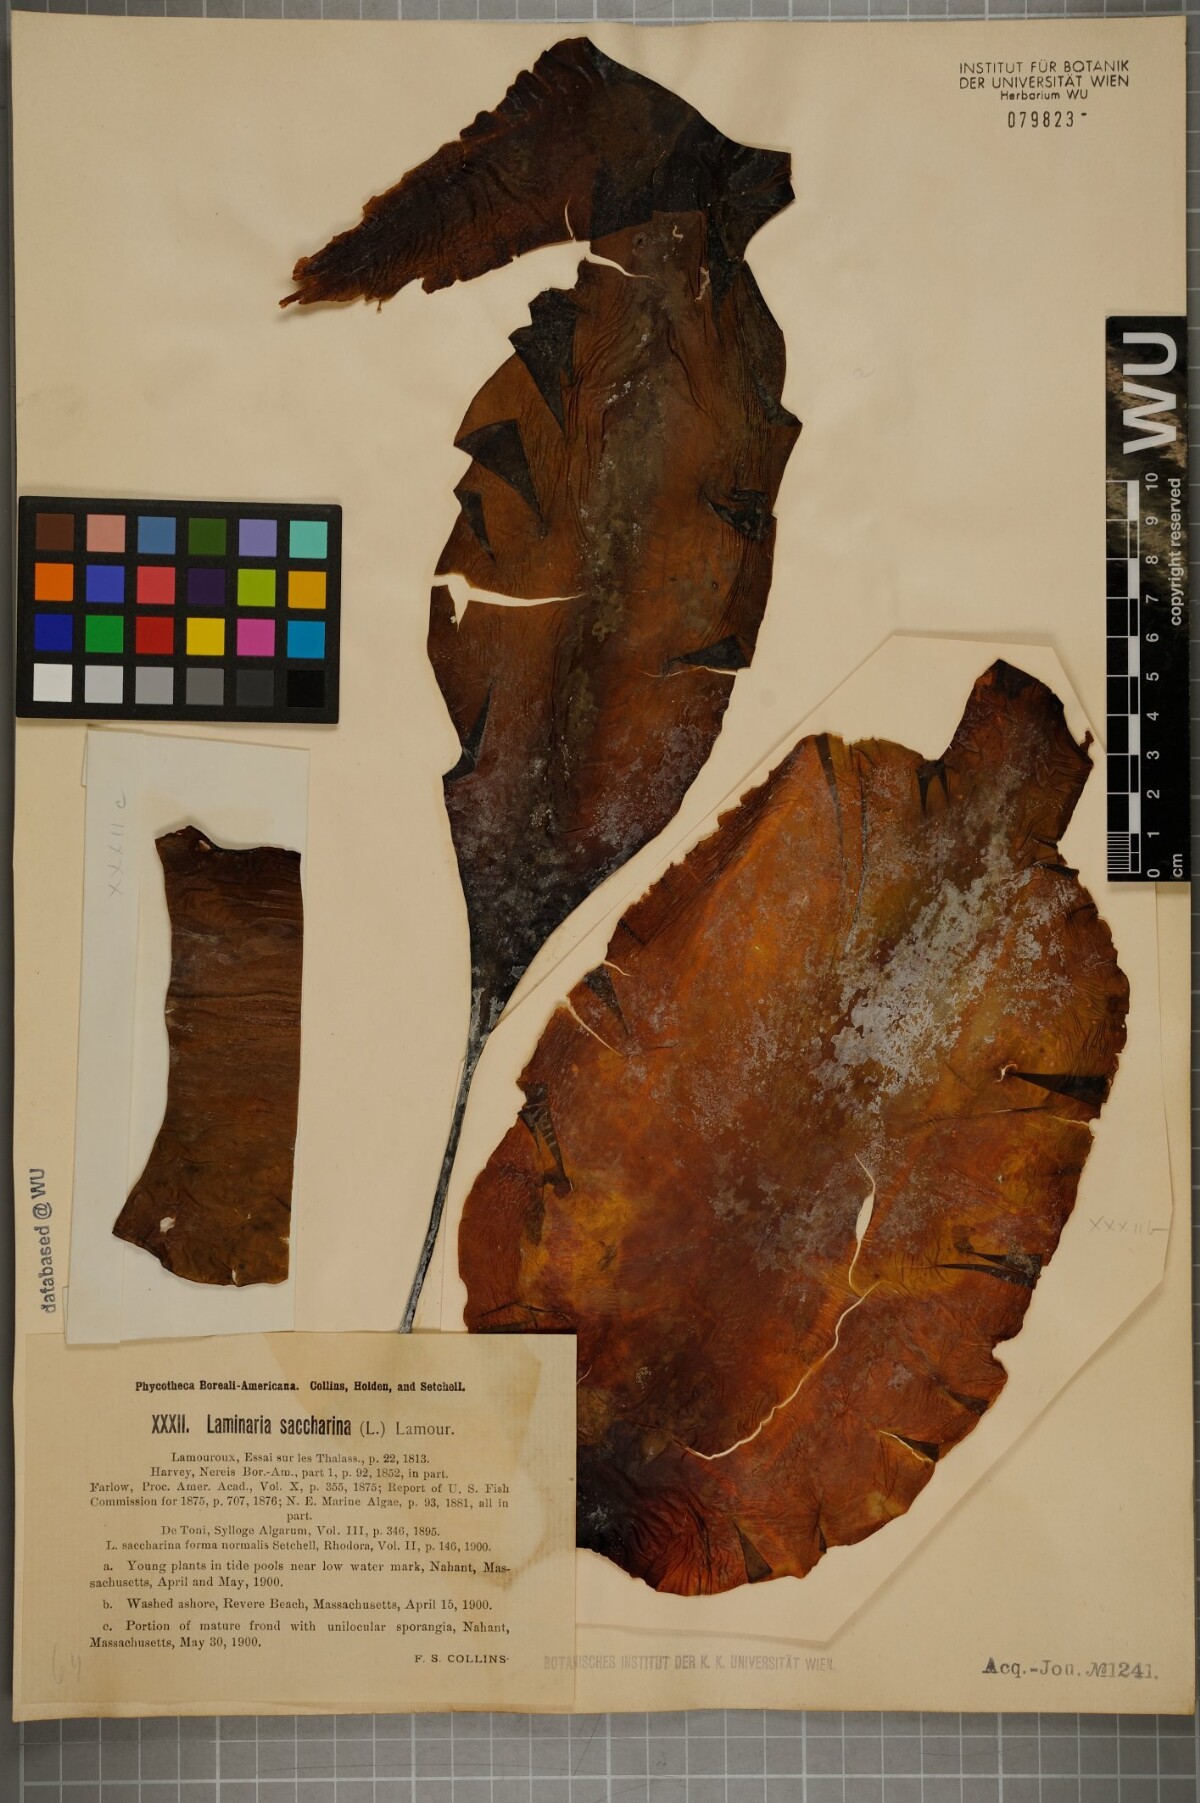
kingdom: Chromista
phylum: Ochrophyta
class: Phaeophyceae
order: Laminariales
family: Laminariaceae
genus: Saccharina
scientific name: Saccharina latissima
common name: Poor man's weather glass
